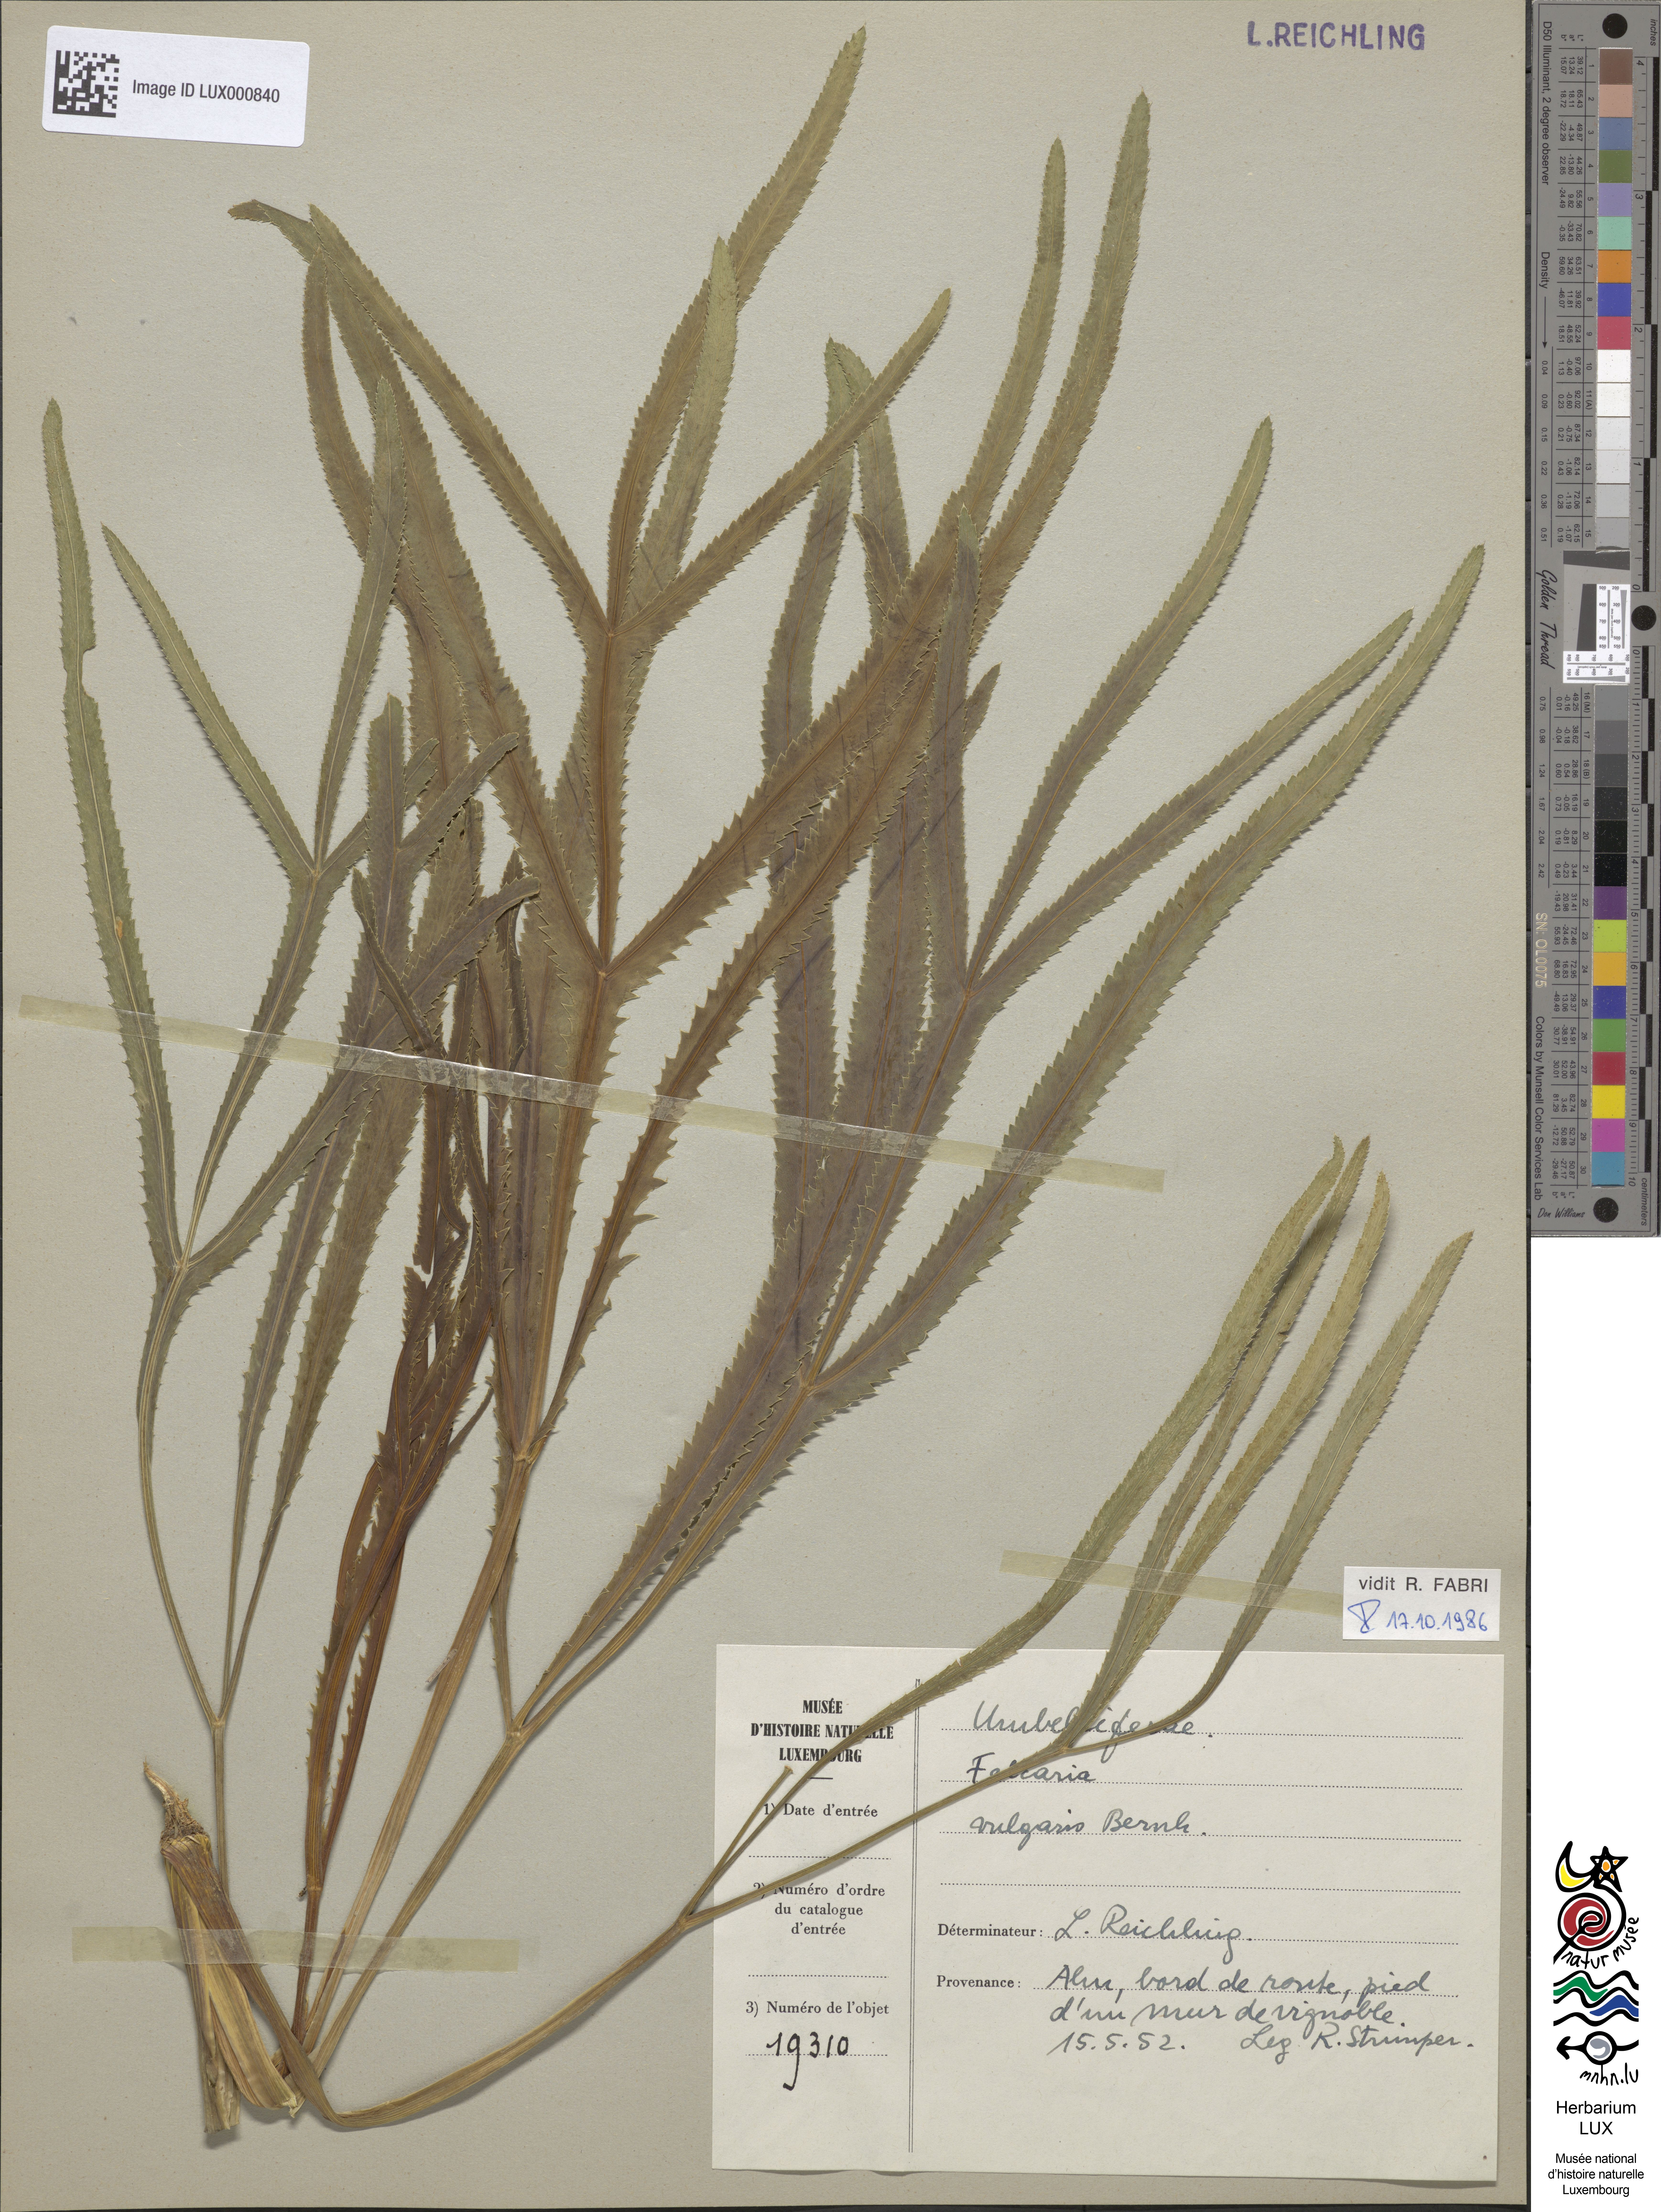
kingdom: Plantae
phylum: Tracheophyta
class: Magnoliopsida
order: Apiales
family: Apiaceae
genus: Falcaria
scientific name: Falcaria vulgaris
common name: Longleaf
